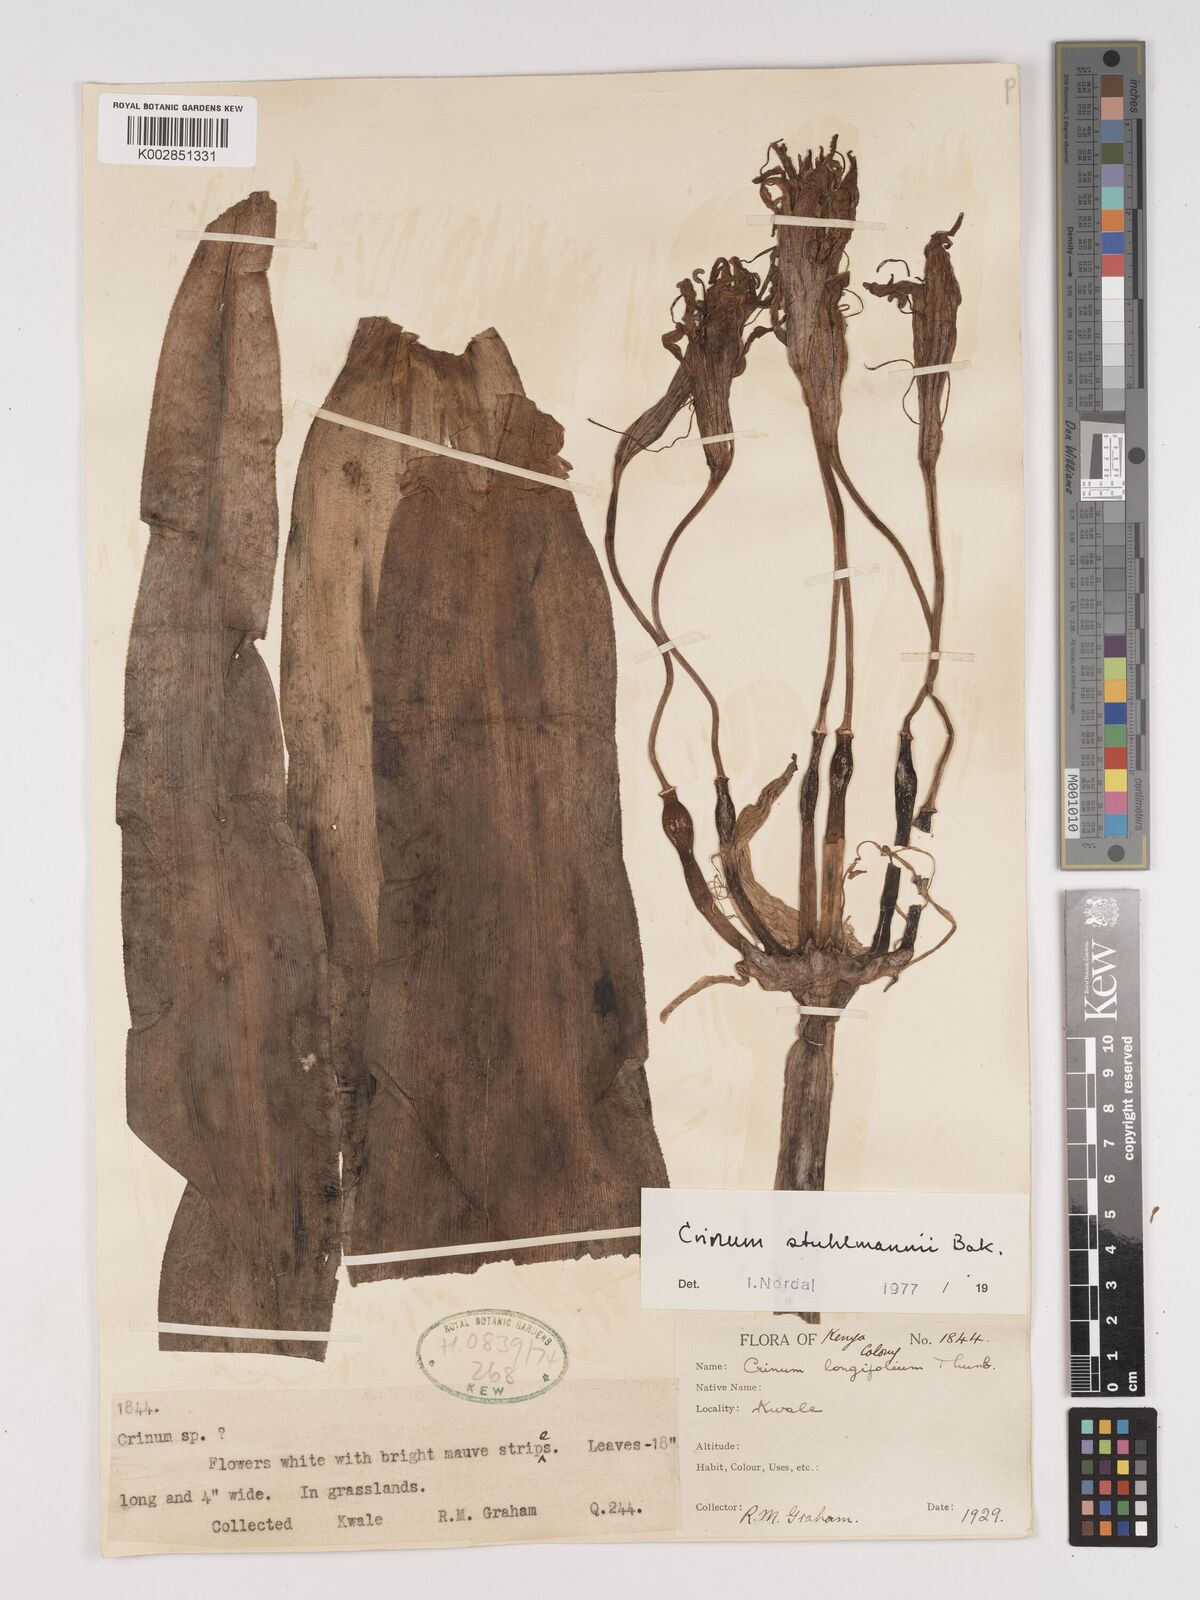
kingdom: Plantae
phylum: Tracheophyta
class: Liliopsida
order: Asparagales
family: Amaryllidaceae
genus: Crinum
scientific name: Crinum stuhlmannii
